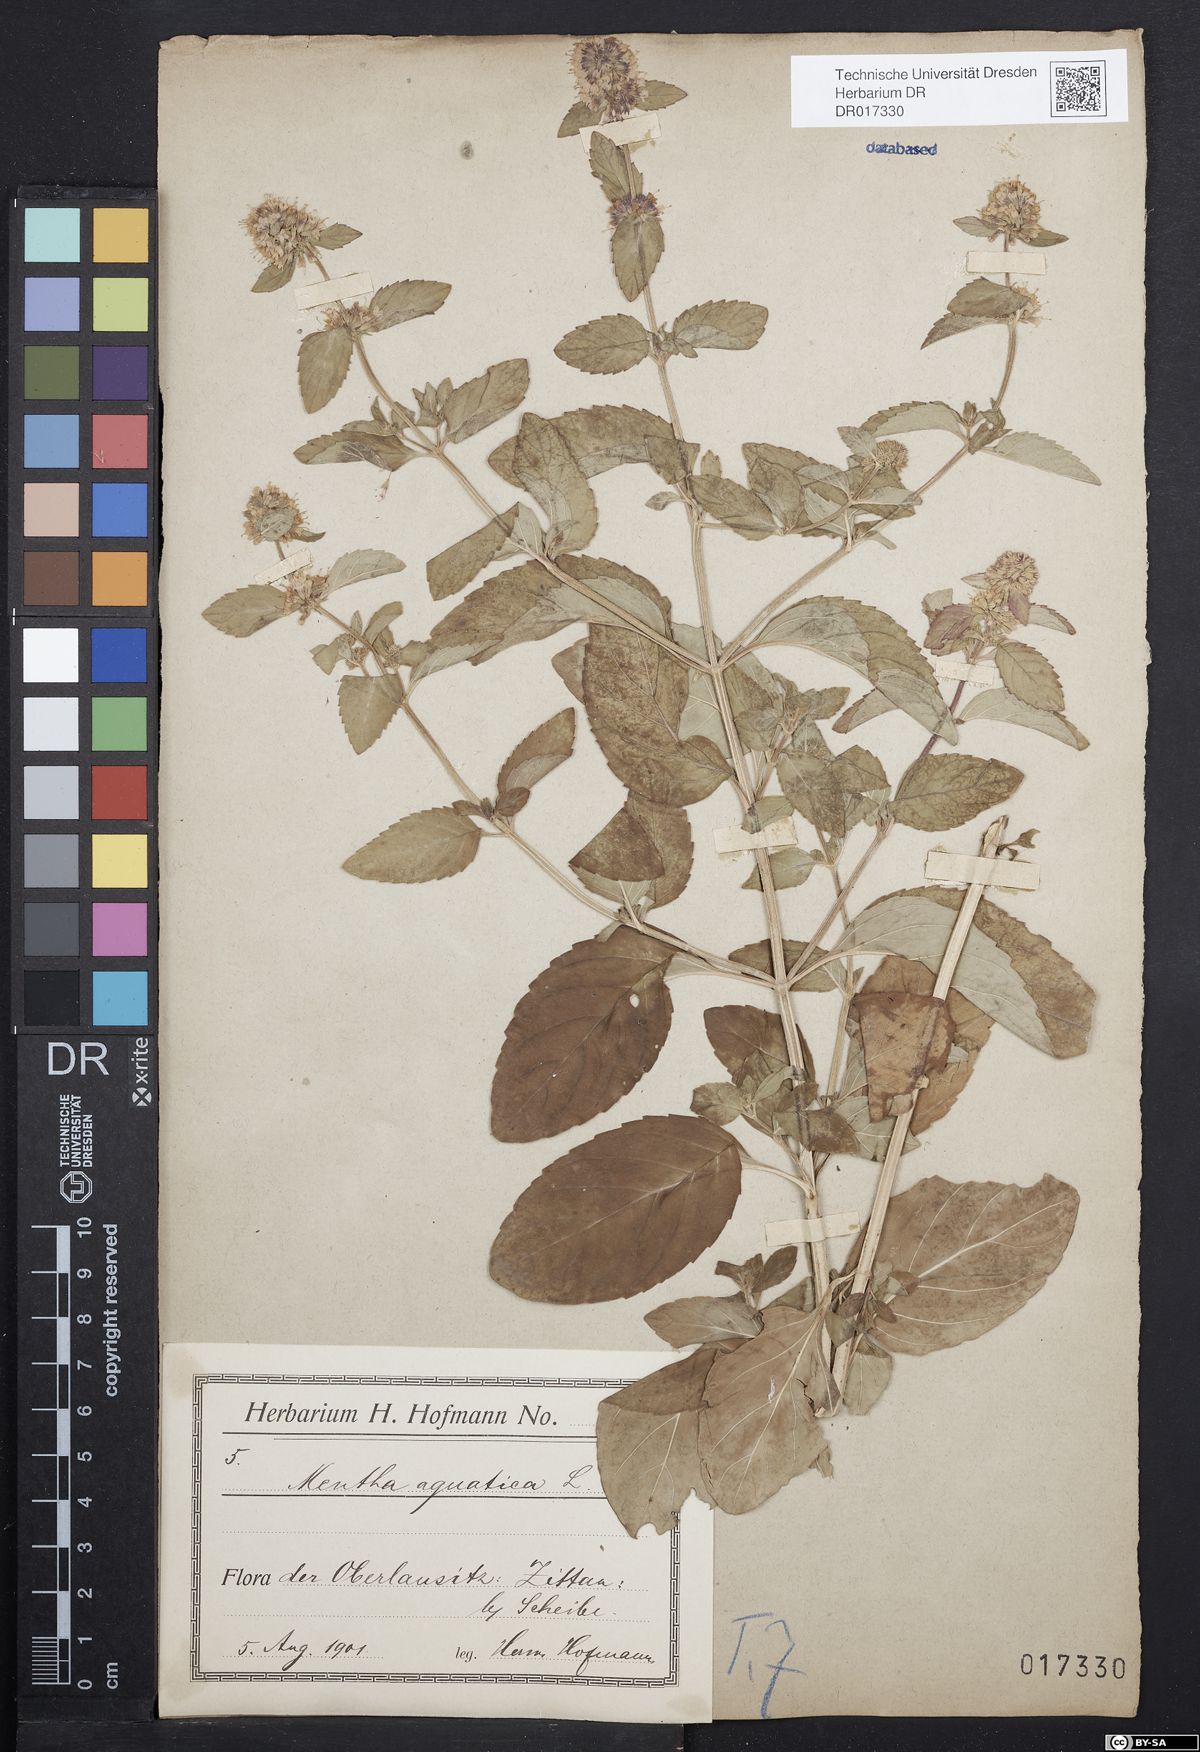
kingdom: Plantae
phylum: Tracheophyta
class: Magnoliopsida
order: Lamiales
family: Lamiaceae
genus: Mentha
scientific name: Mentha aquatica
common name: Water mint
